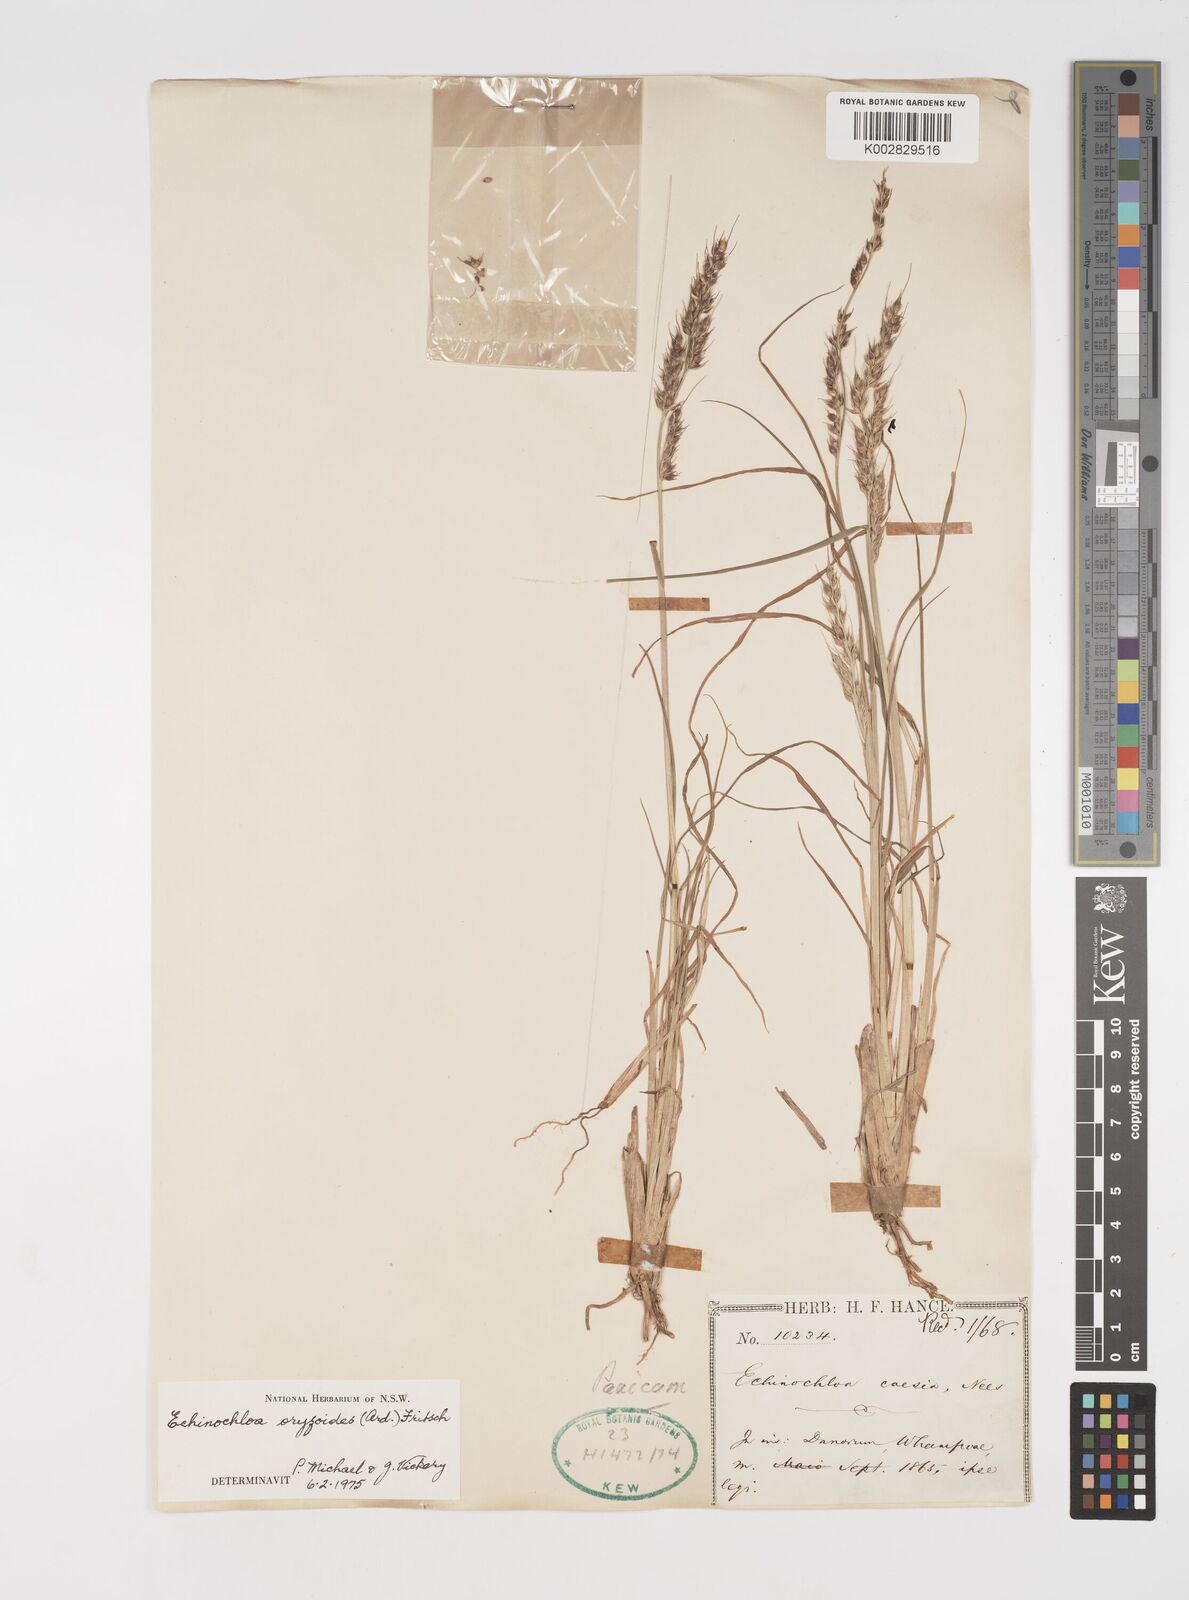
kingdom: Plantae
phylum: Tracheophyta
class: Liliopsida
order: Poales
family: Poaceae
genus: Echinochloa
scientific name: Echinochloa oryzoides
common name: Early water grass
